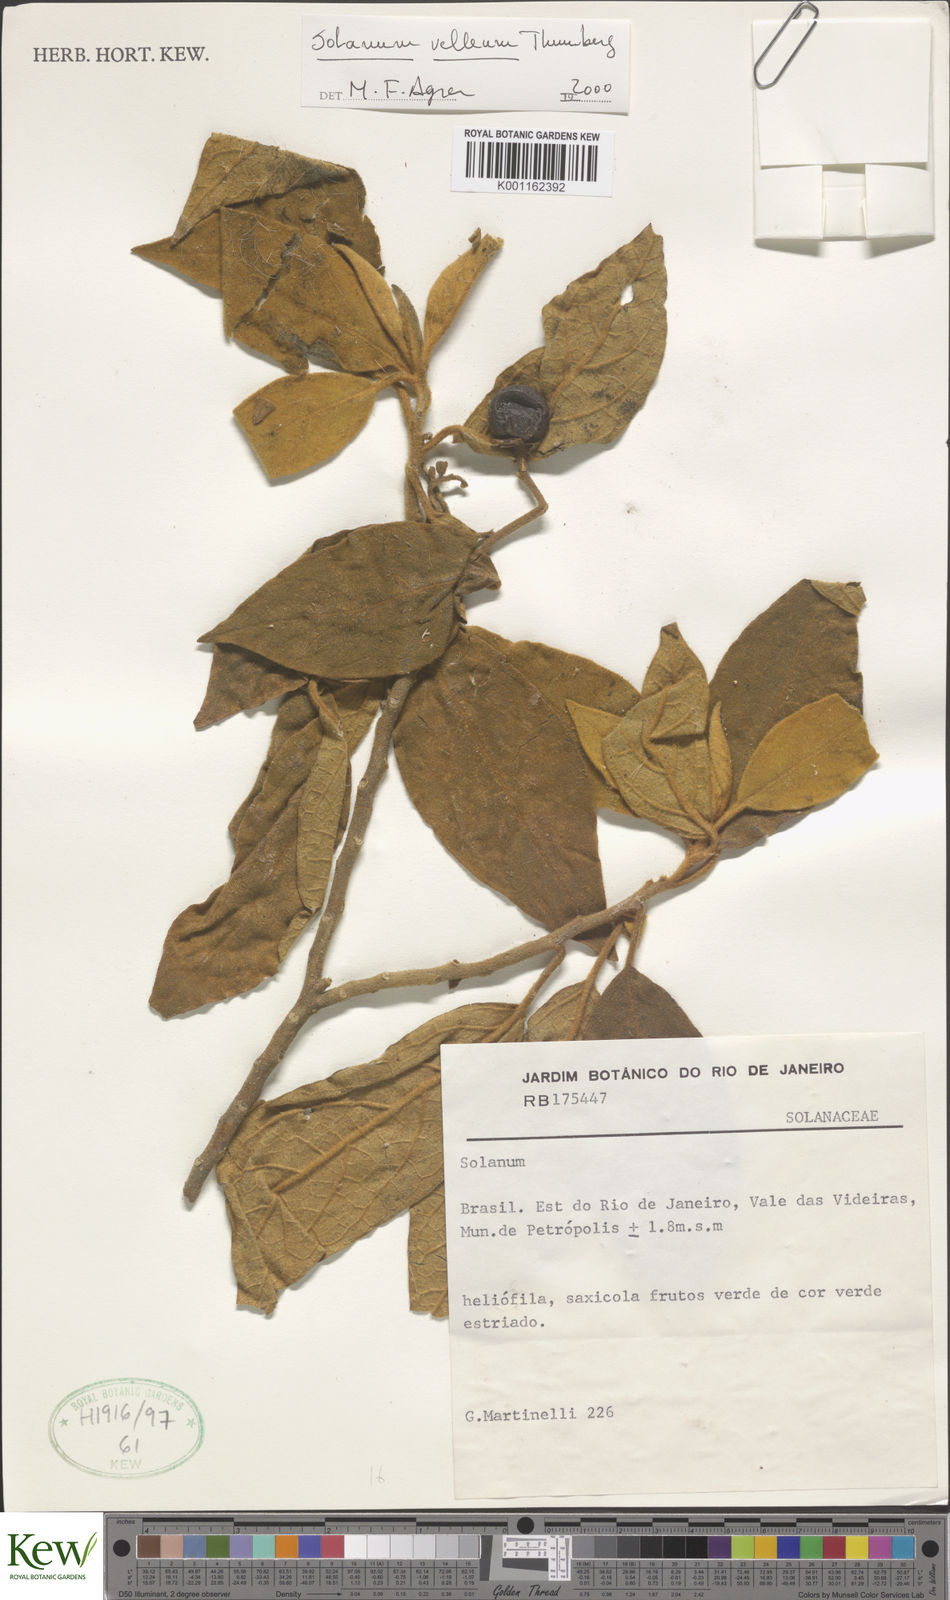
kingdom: Plantae
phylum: Tracheophyta
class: Magnoliopsida
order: Solanales
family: Solanaceae
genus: Solanum
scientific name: Solanum velleum
